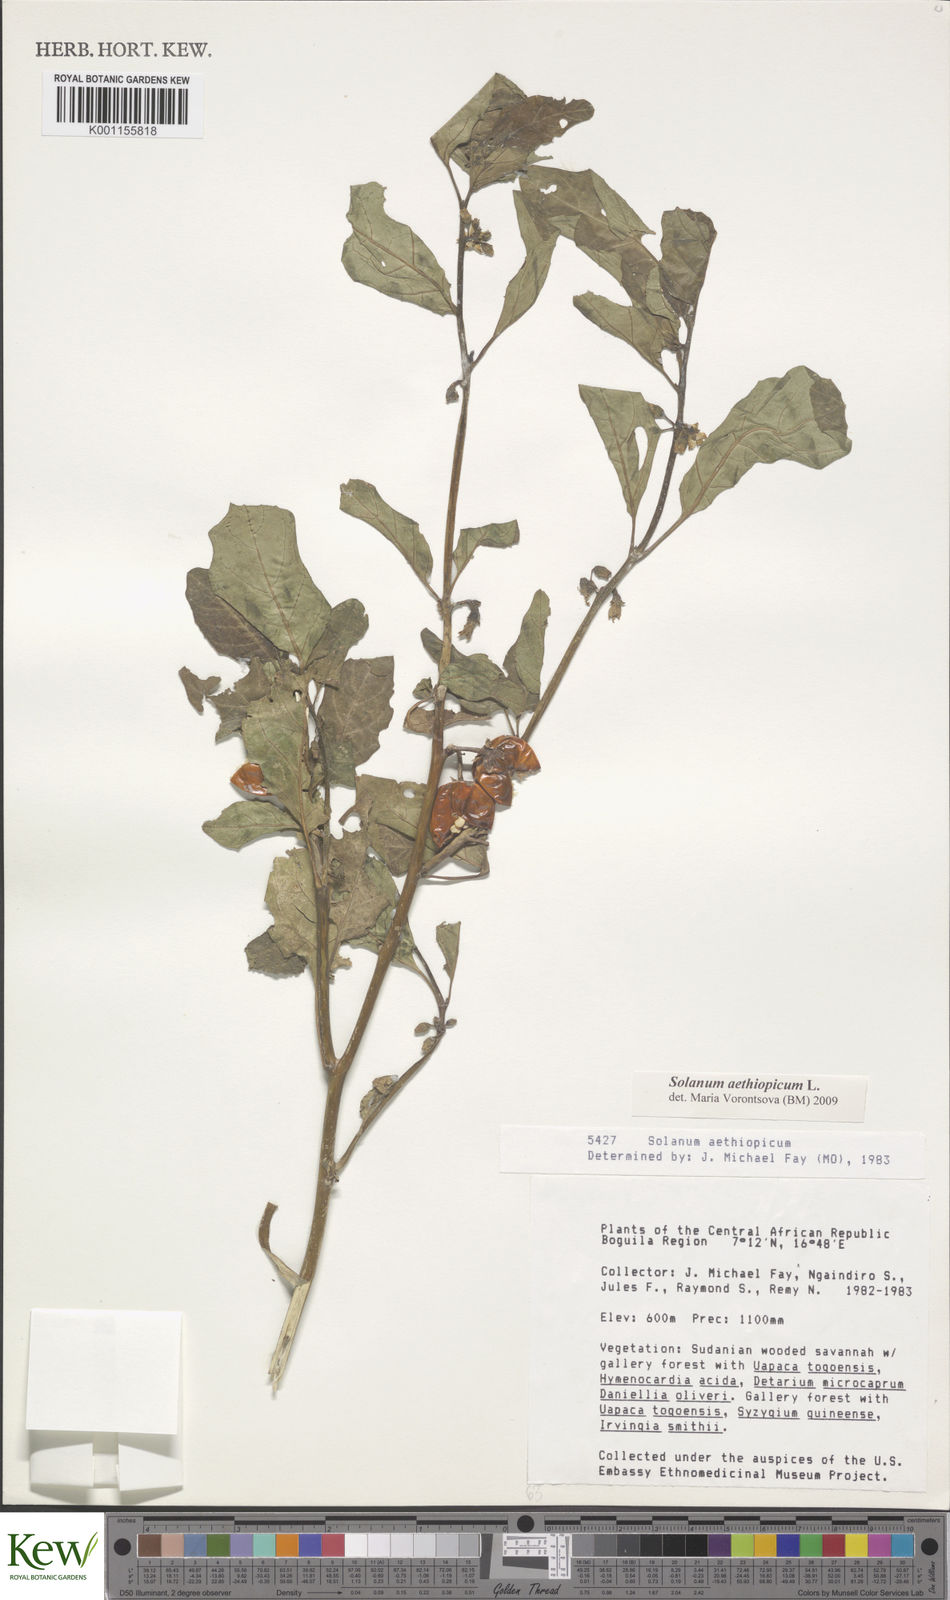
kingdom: Plantae
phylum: Tracheophyta
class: Magnoliopsida
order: Solanales
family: Solanaceae
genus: Solanum
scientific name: Solanum aethiopicum
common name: Gilo
